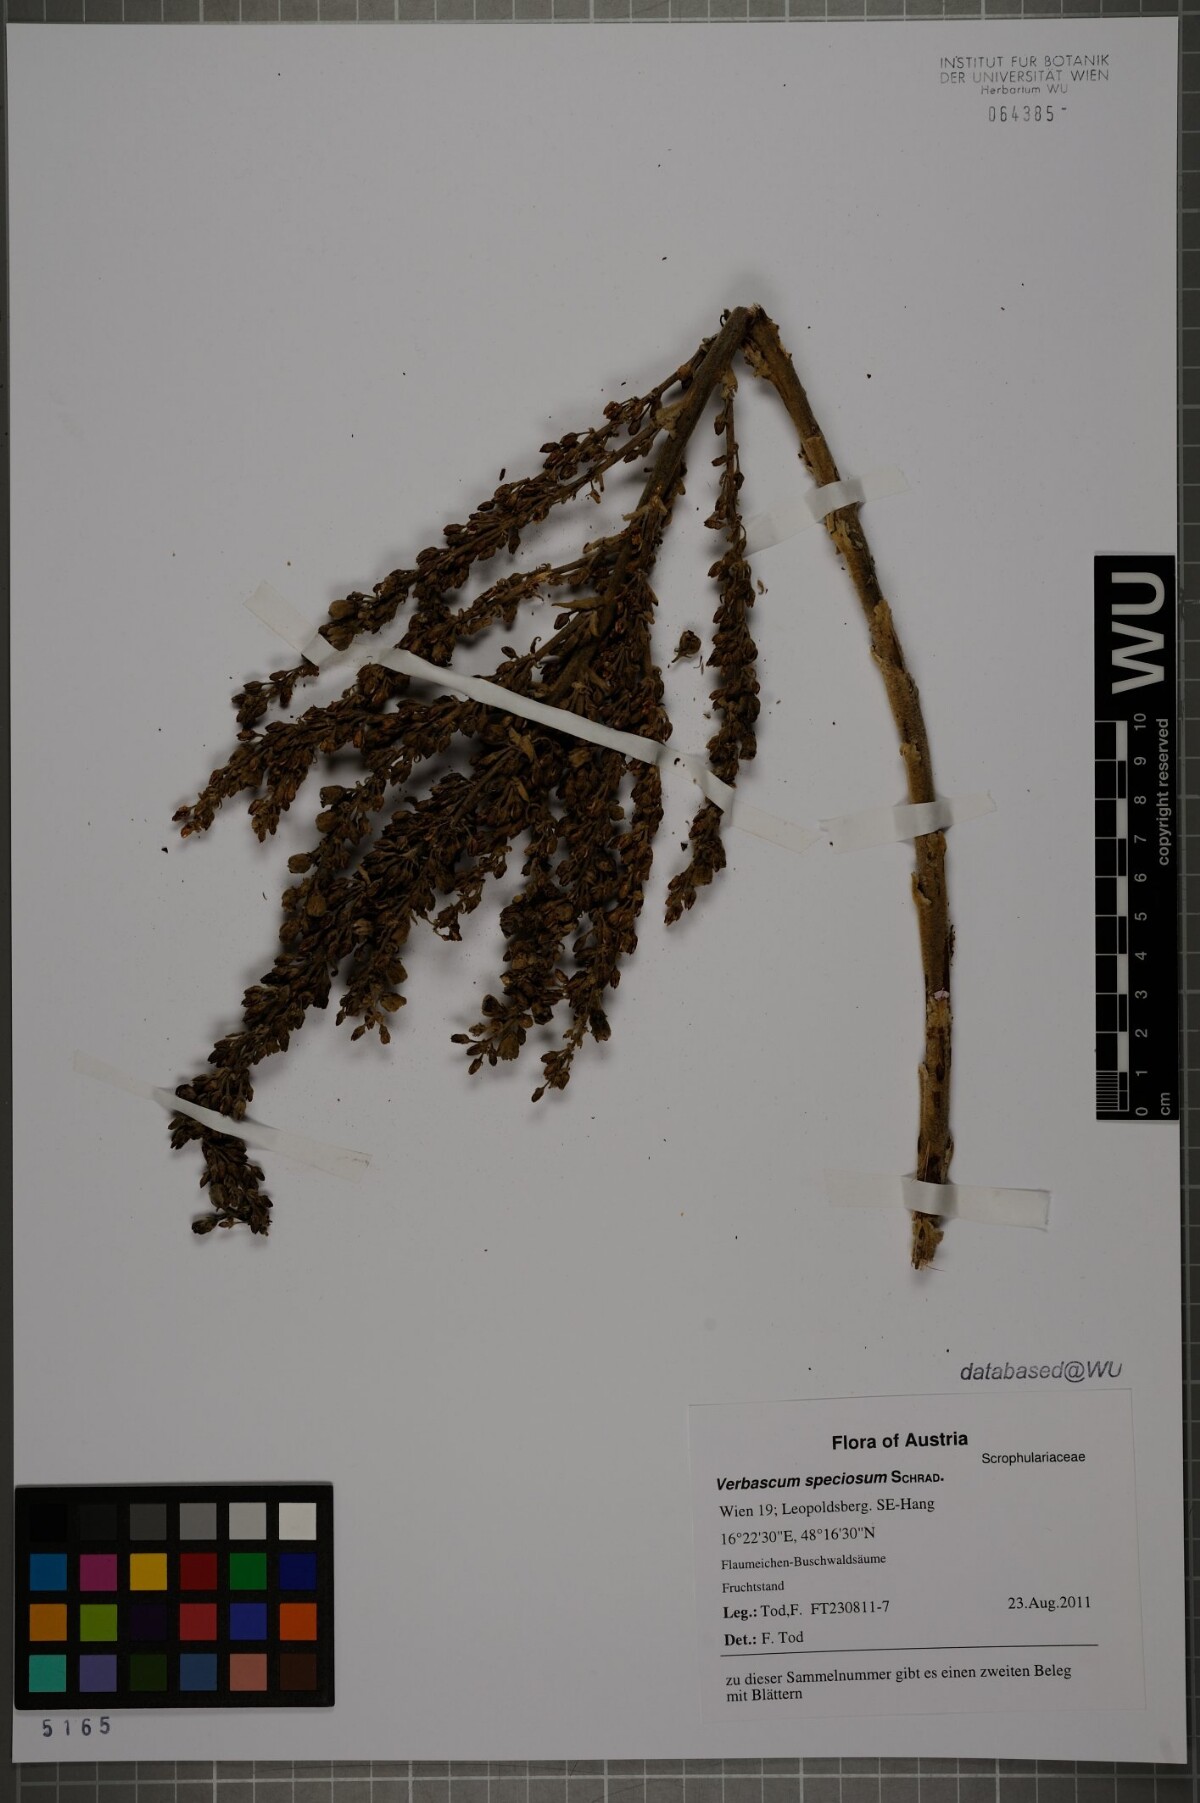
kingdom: Plantae
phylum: Tracheophyta
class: Magnoliopsida
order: Lamiales
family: Scrophulariaceae
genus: Verbascum
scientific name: Verbascum speciosum
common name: Hungarian mullein
